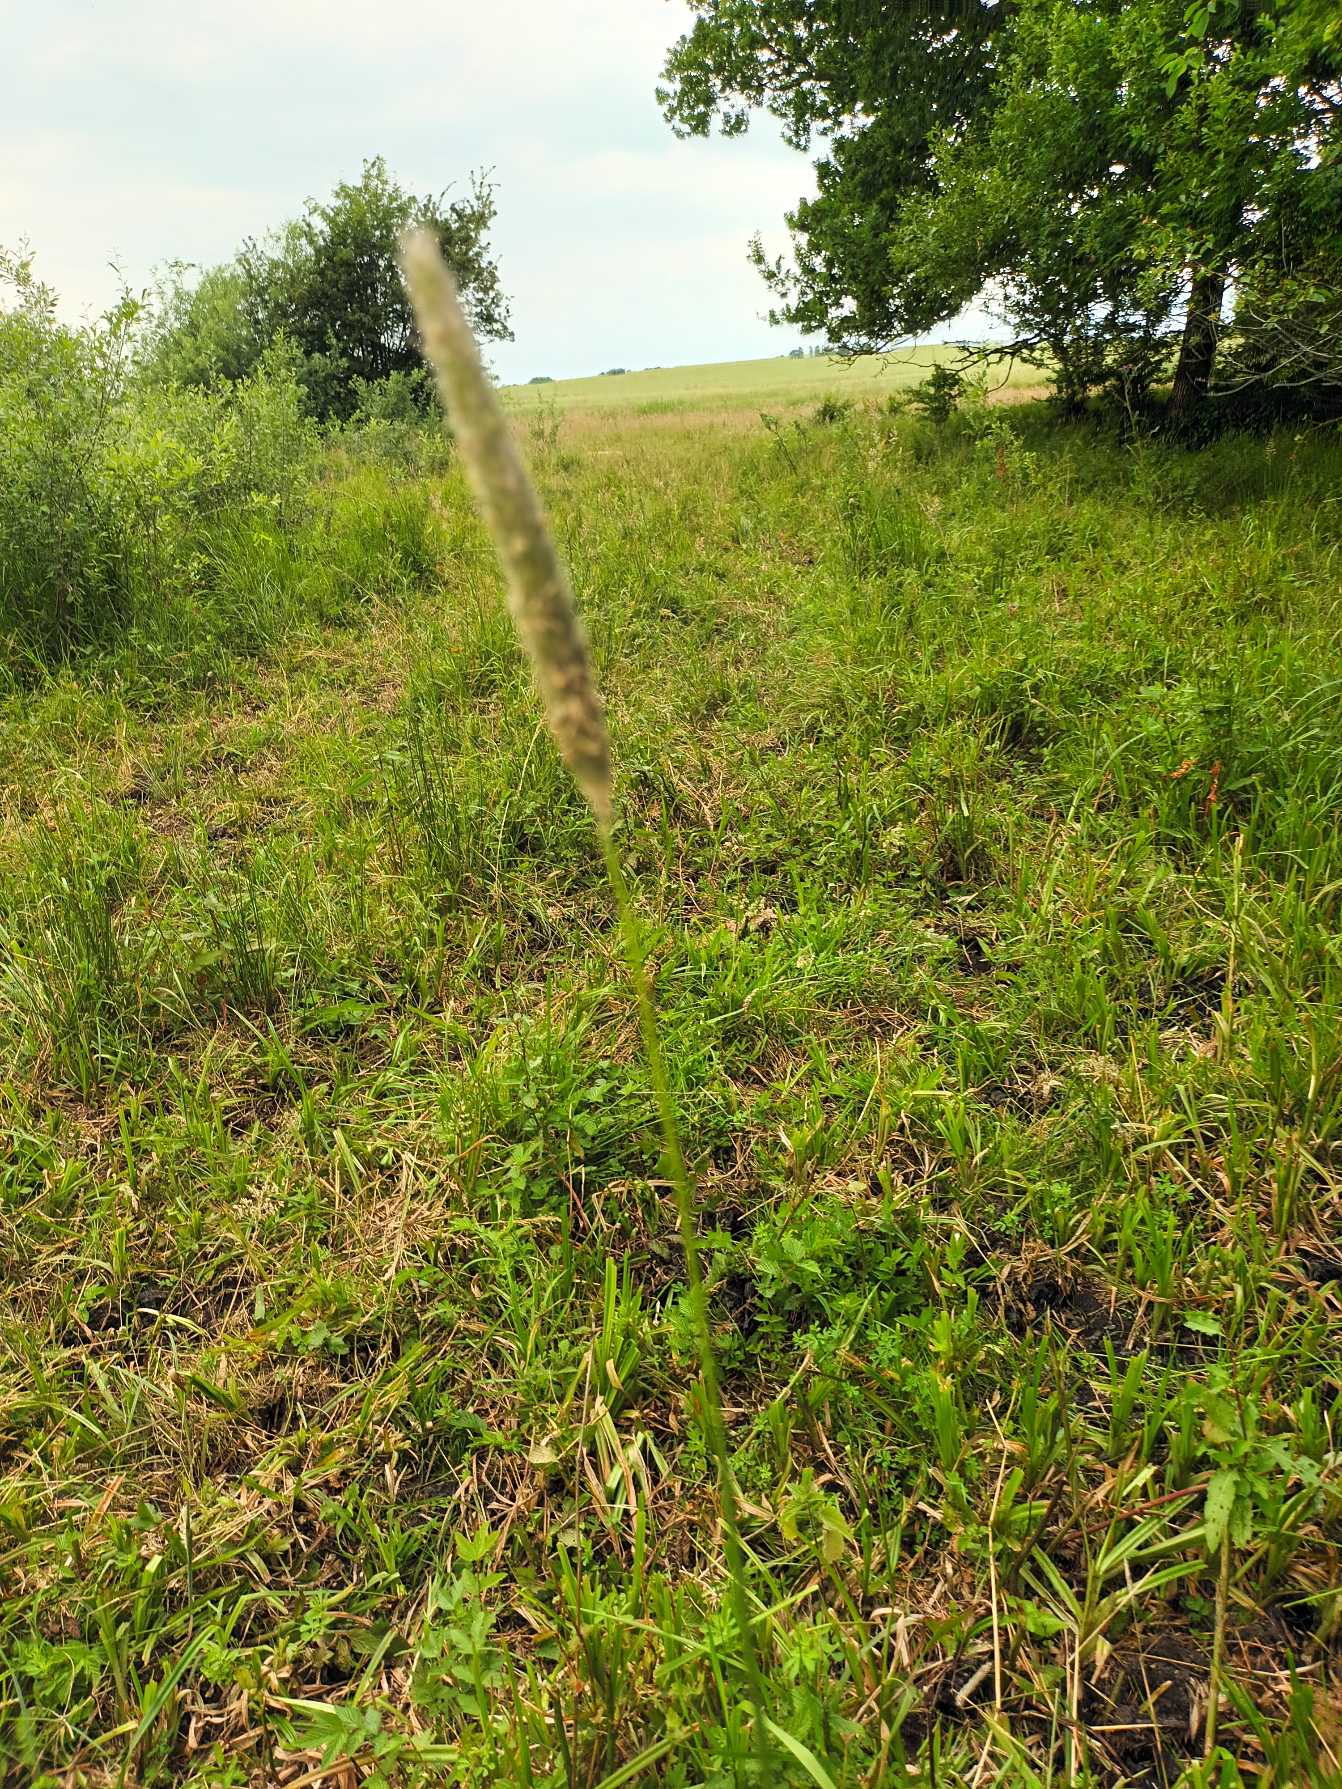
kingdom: Plantae
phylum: Tracheophyta
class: Liliopsida
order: Poales
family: Poaceae
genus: Alopecurus
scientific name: Alopecurus pratensis
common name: Eng-rævehale
